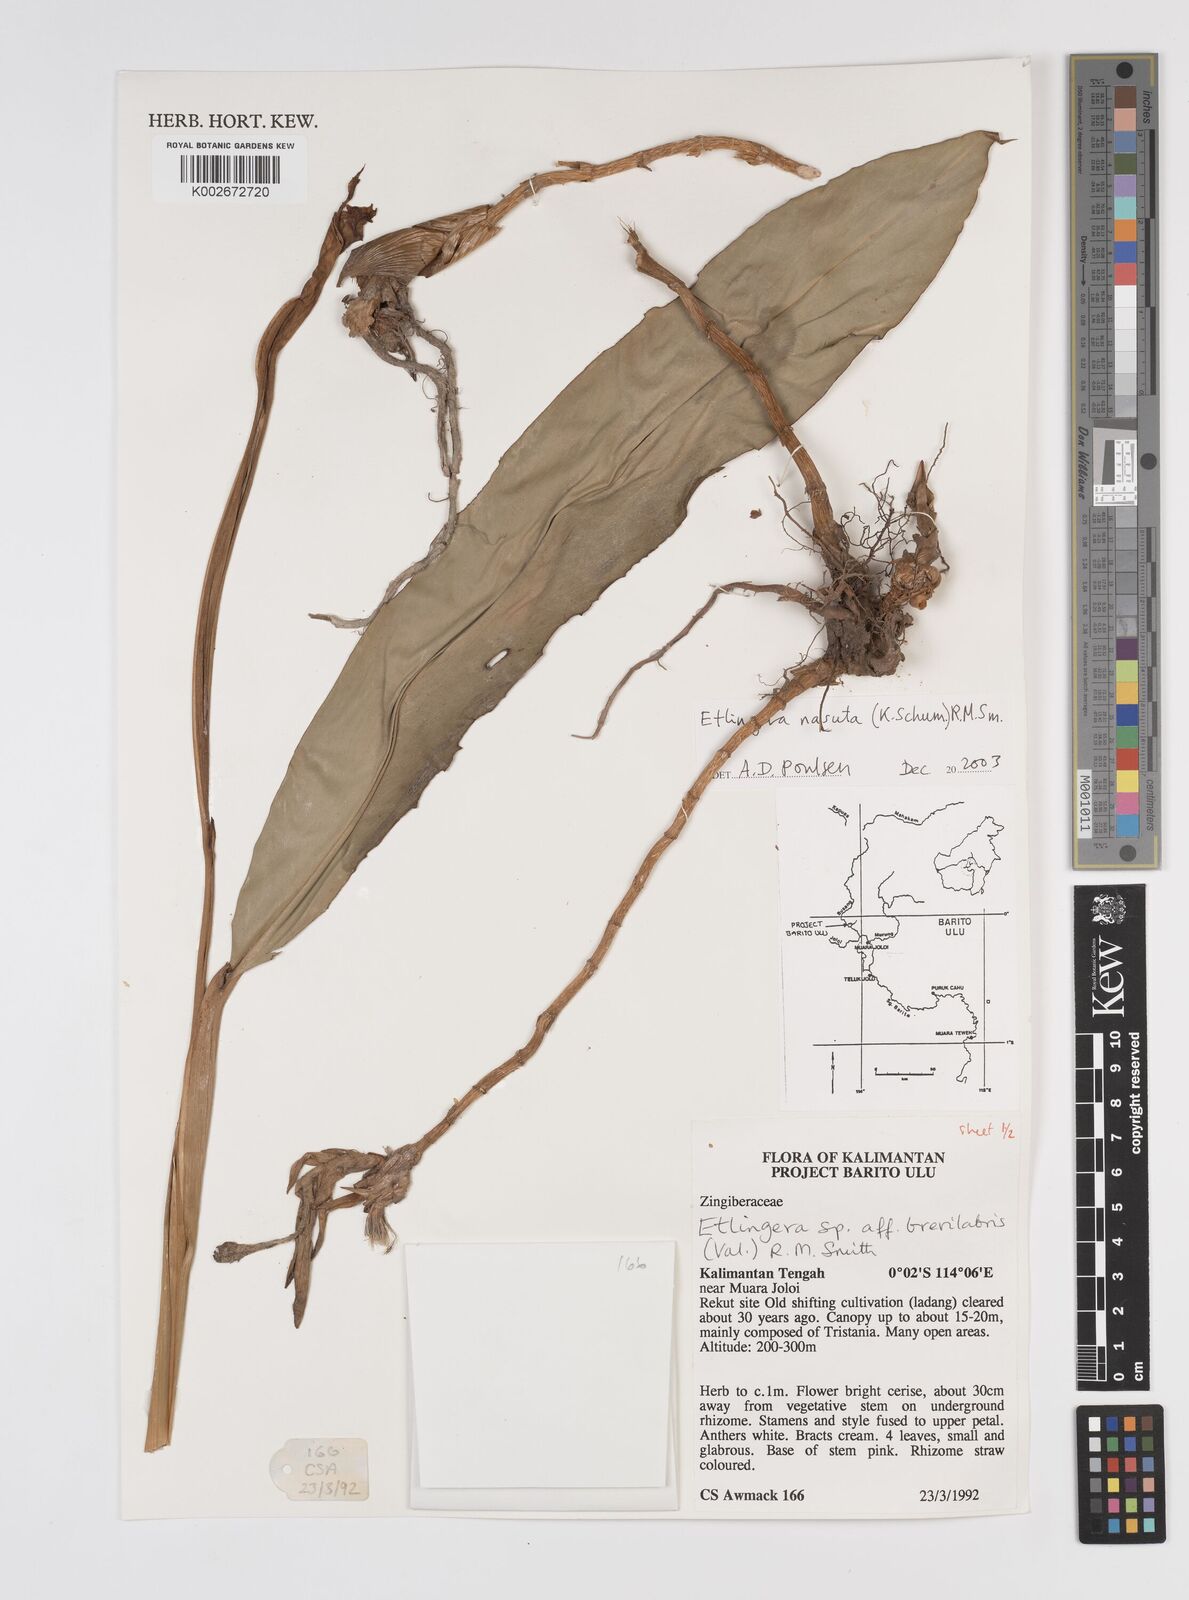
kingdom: Plantae
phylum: Tracheophyta
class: Liliopsida
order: Zingiberales
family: Zingiberaceae
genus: Etlingera
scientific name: Etlingera nasuta
